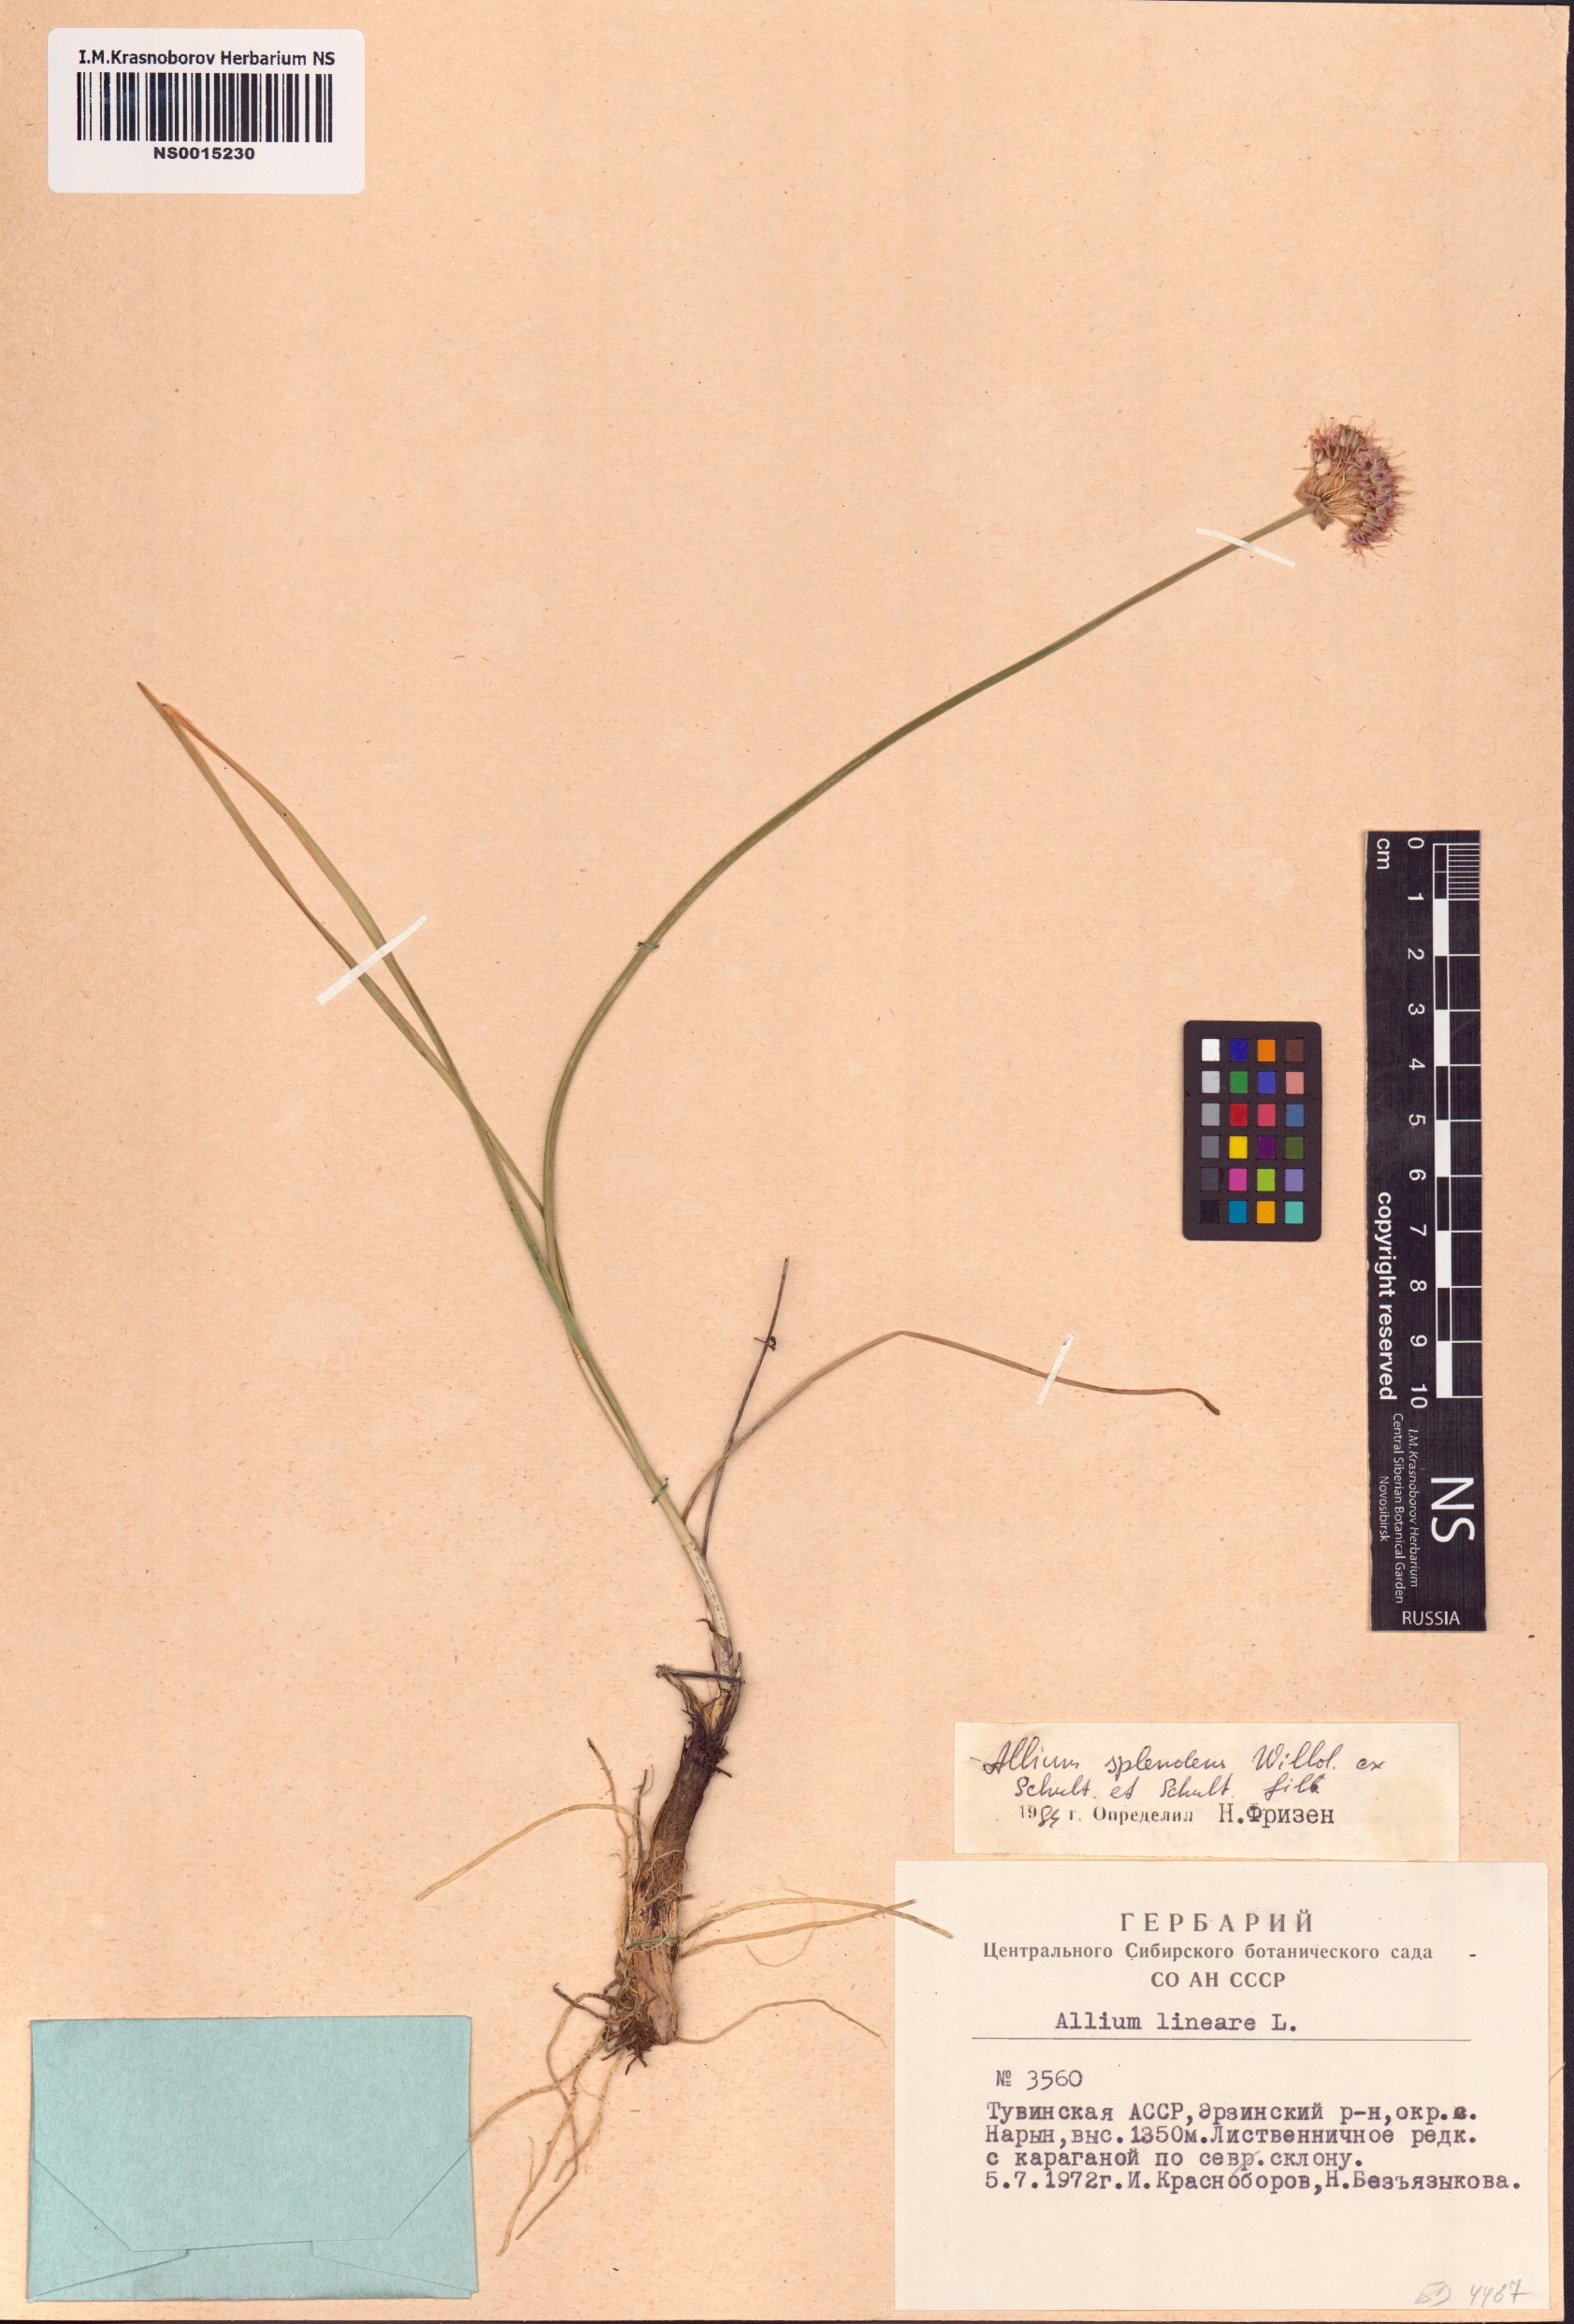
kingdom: Plantae
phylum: Tracheophyta
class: Liliopsida
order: Asparagales
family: Amaryllidaceae
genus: Allium
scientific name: Allium splendens
